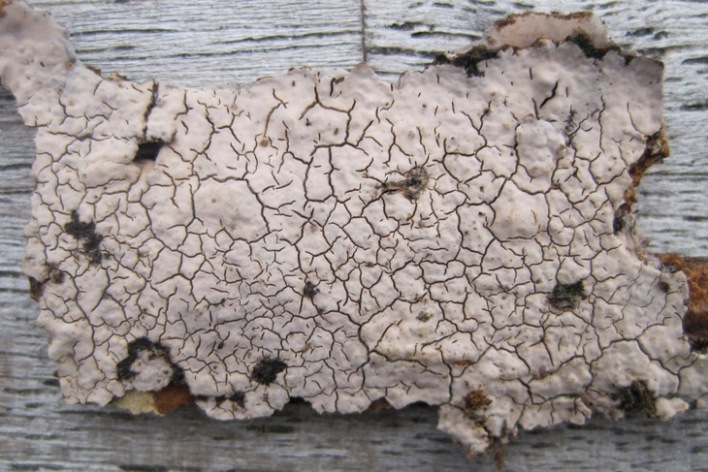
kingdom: Fungi
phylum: Basidiomycota
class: Agaricomycetes
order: Russulales
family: Peniophoraceae
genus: Peniophora
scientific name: Peniophora cinerea
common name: grå voksskind
